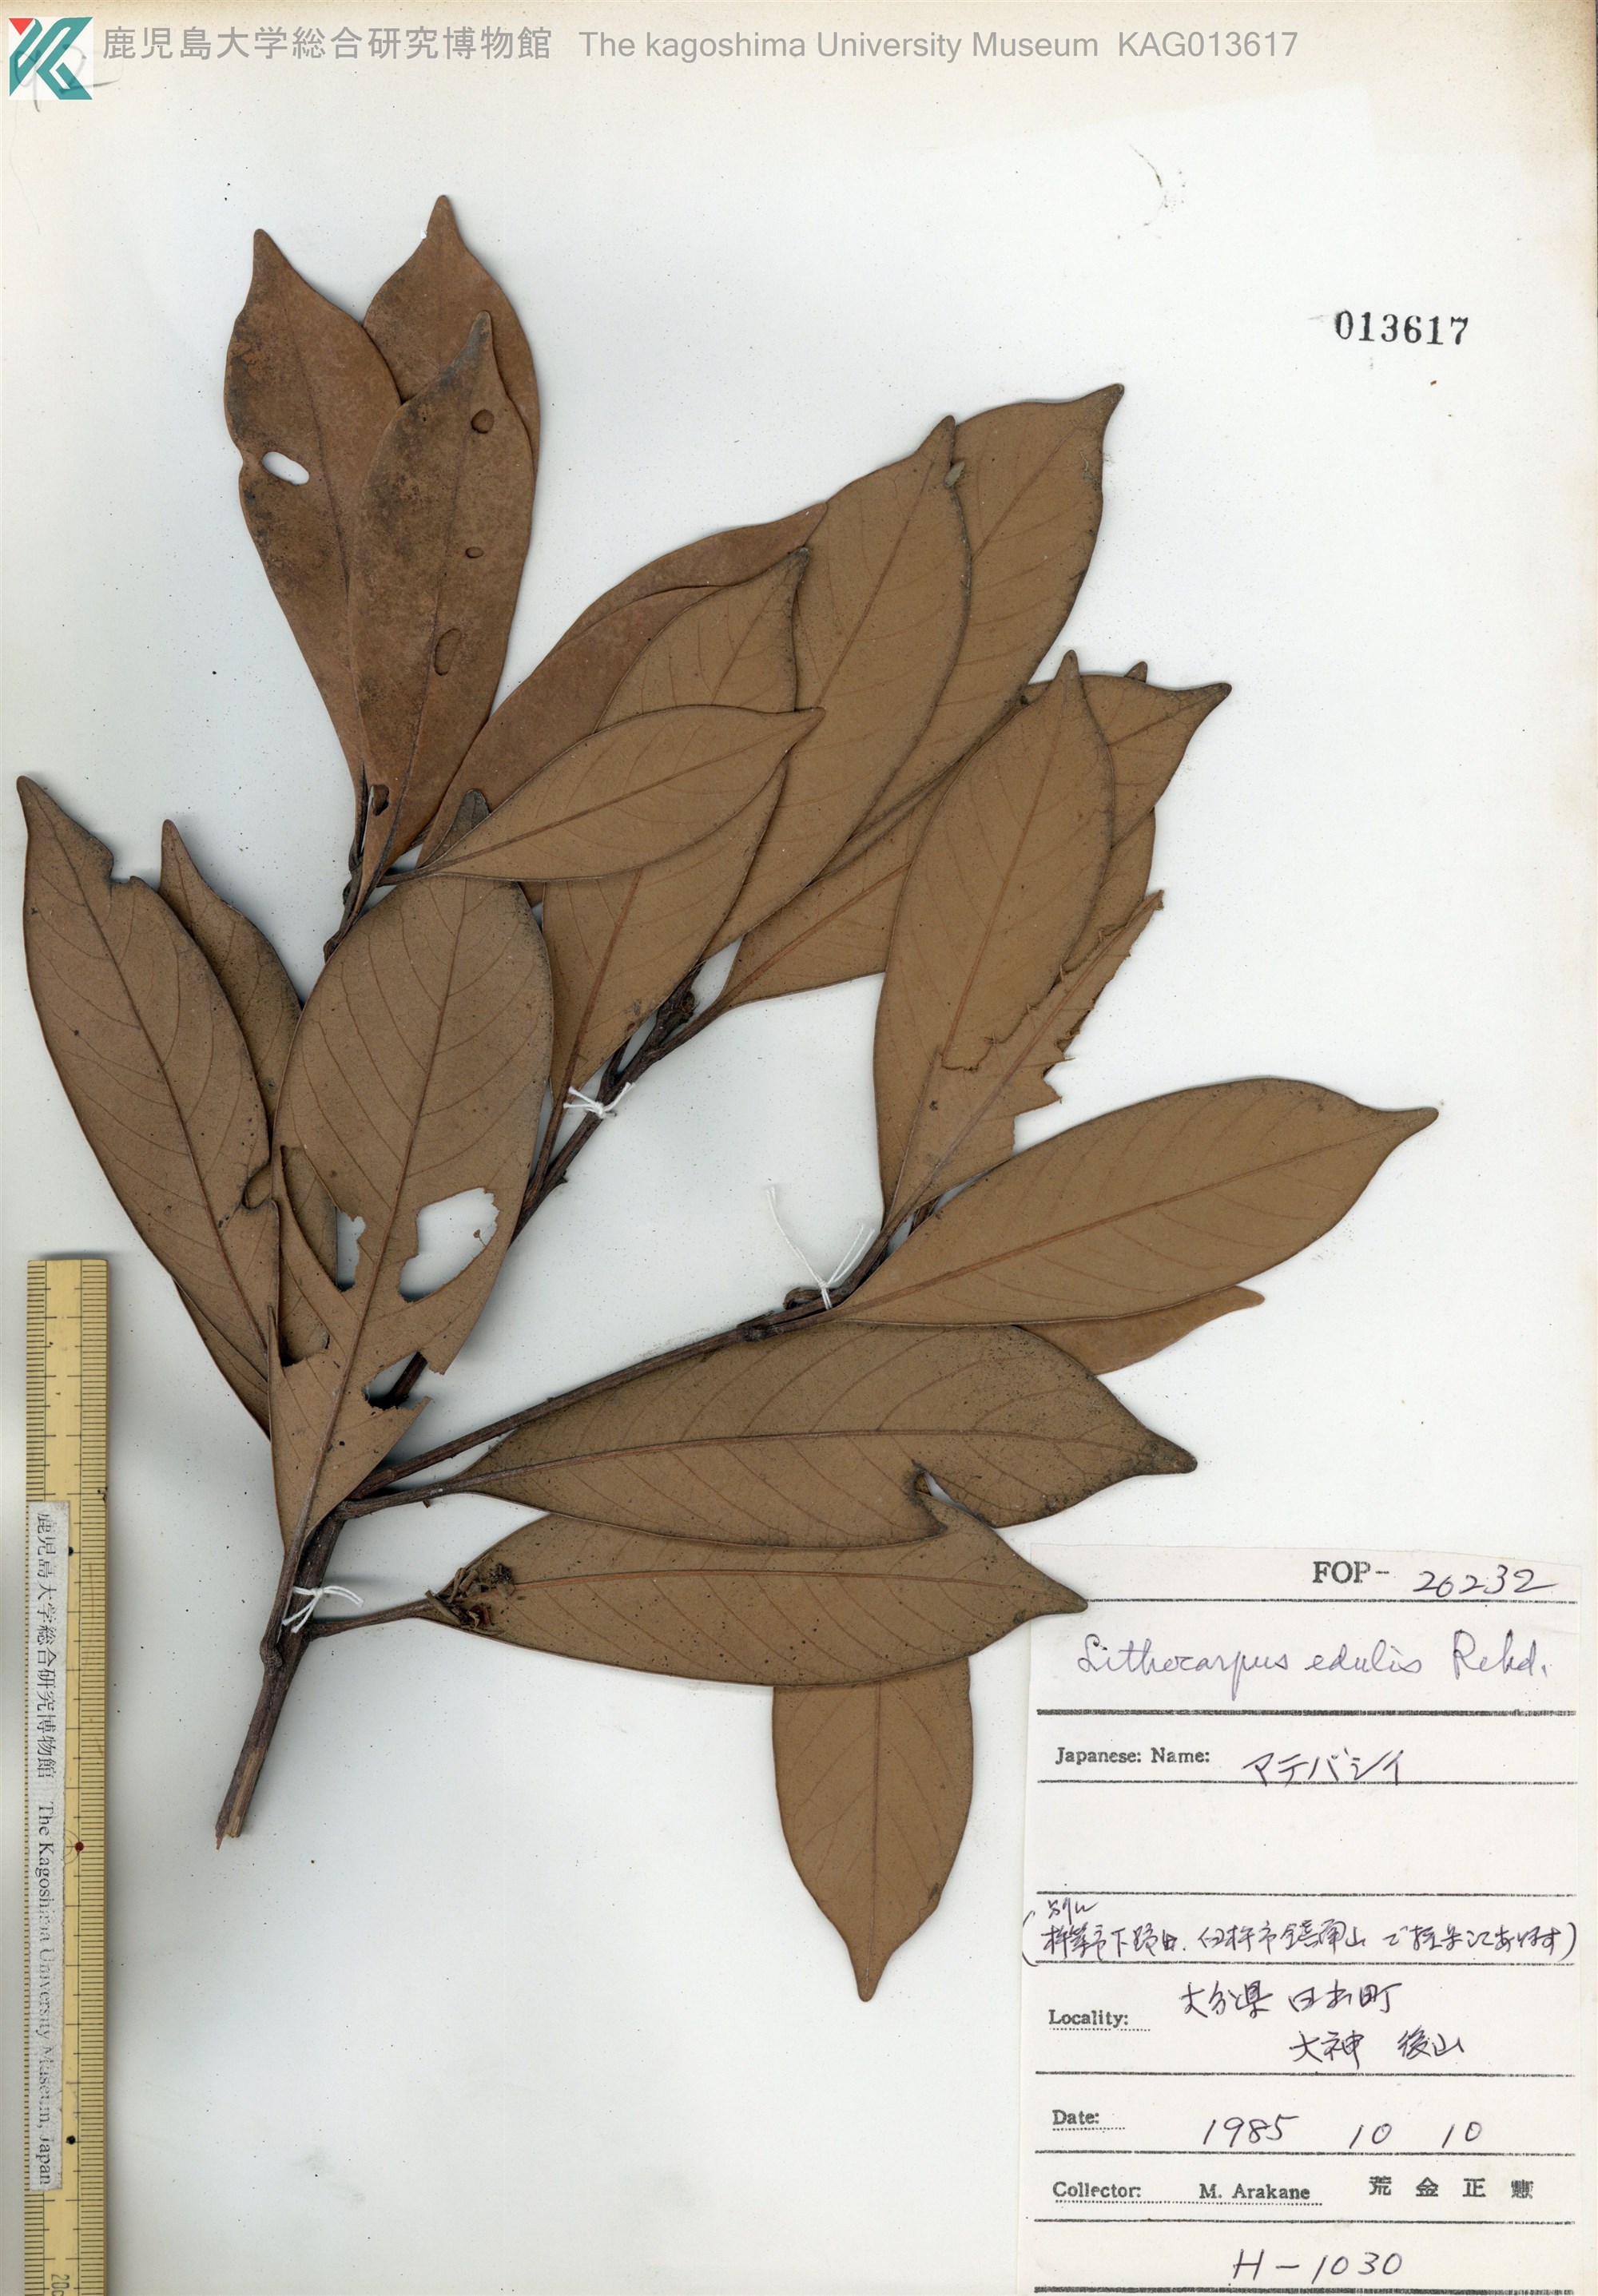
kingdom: Plantae
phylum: Tracheophyta
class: Magnoliopsida
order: Fagales
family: Fagaceae
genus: Lithocarpus
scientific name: Lithocarpus edulis
